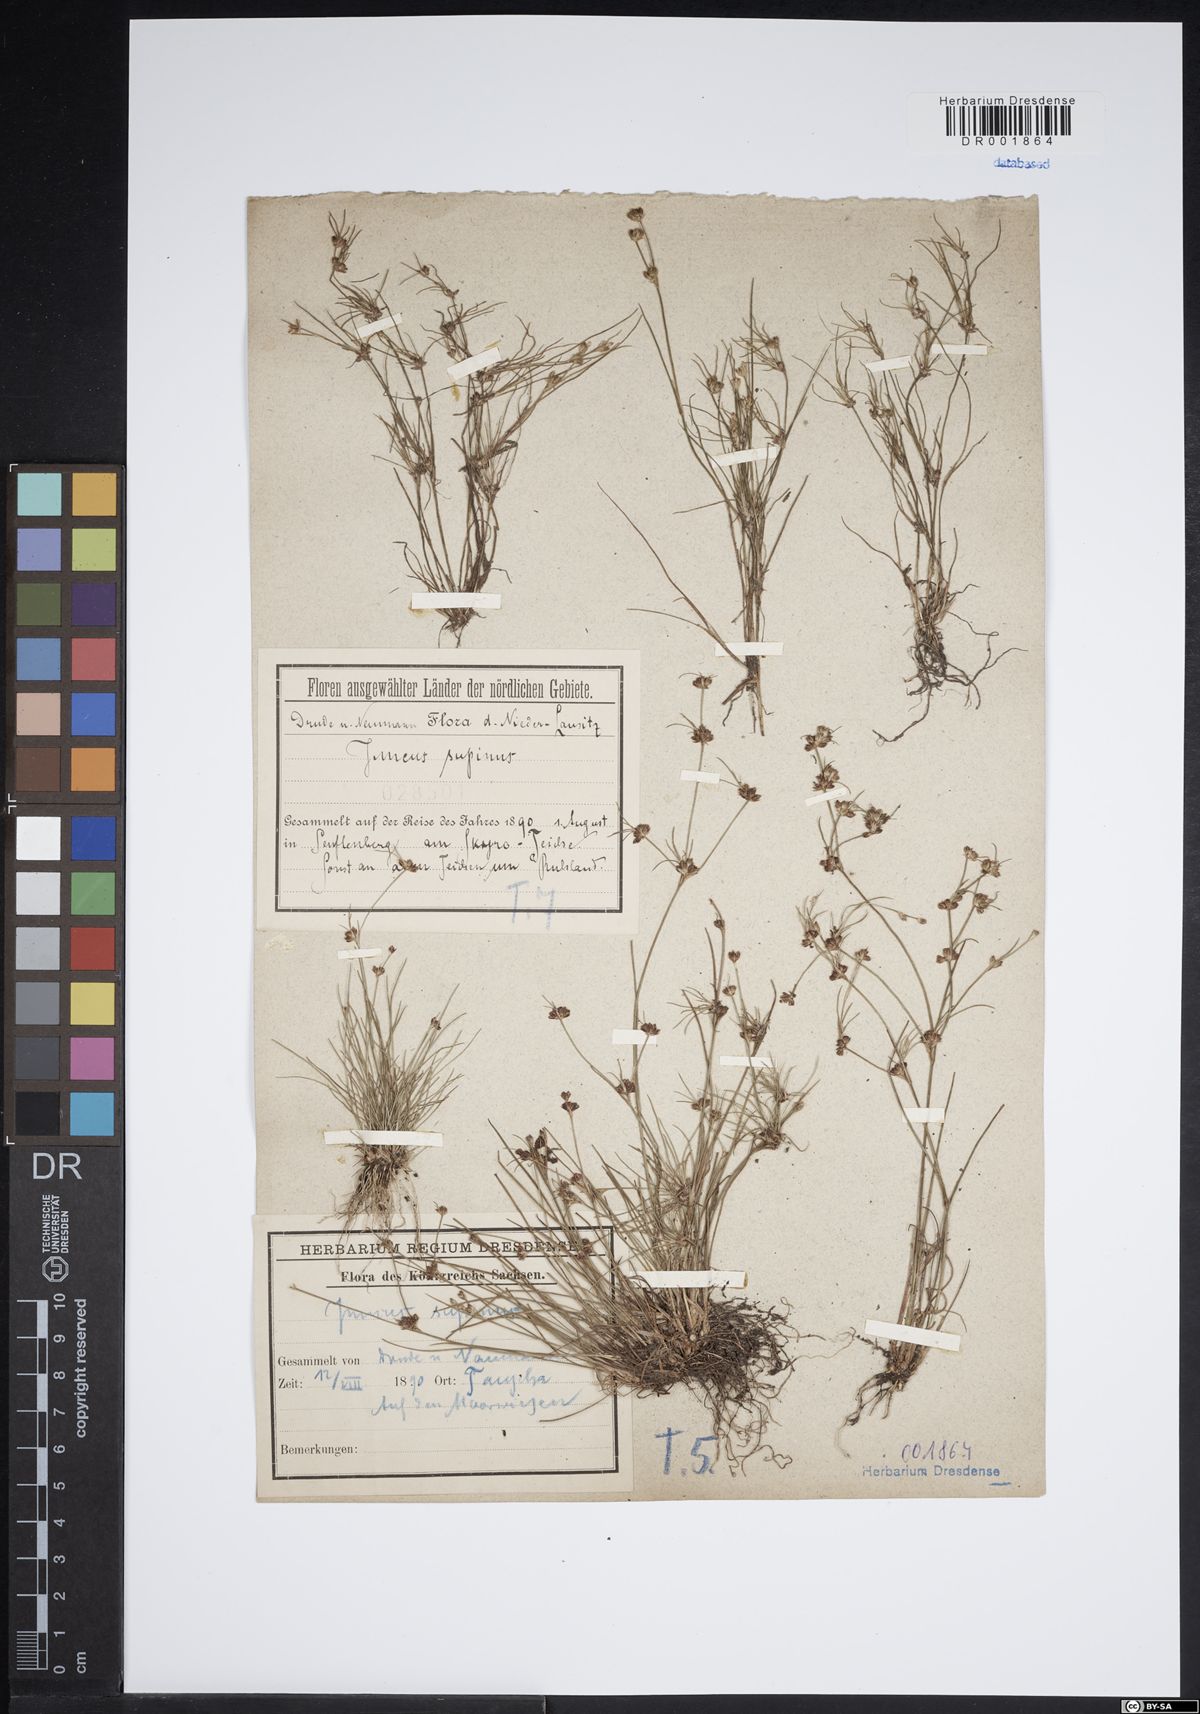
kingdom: Plantae
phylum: Tracheophyta
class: Liliopsida
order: Poales
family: Juncaceae
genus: Juncus
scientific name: Juncus bulbosus
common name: Bulbous rush
